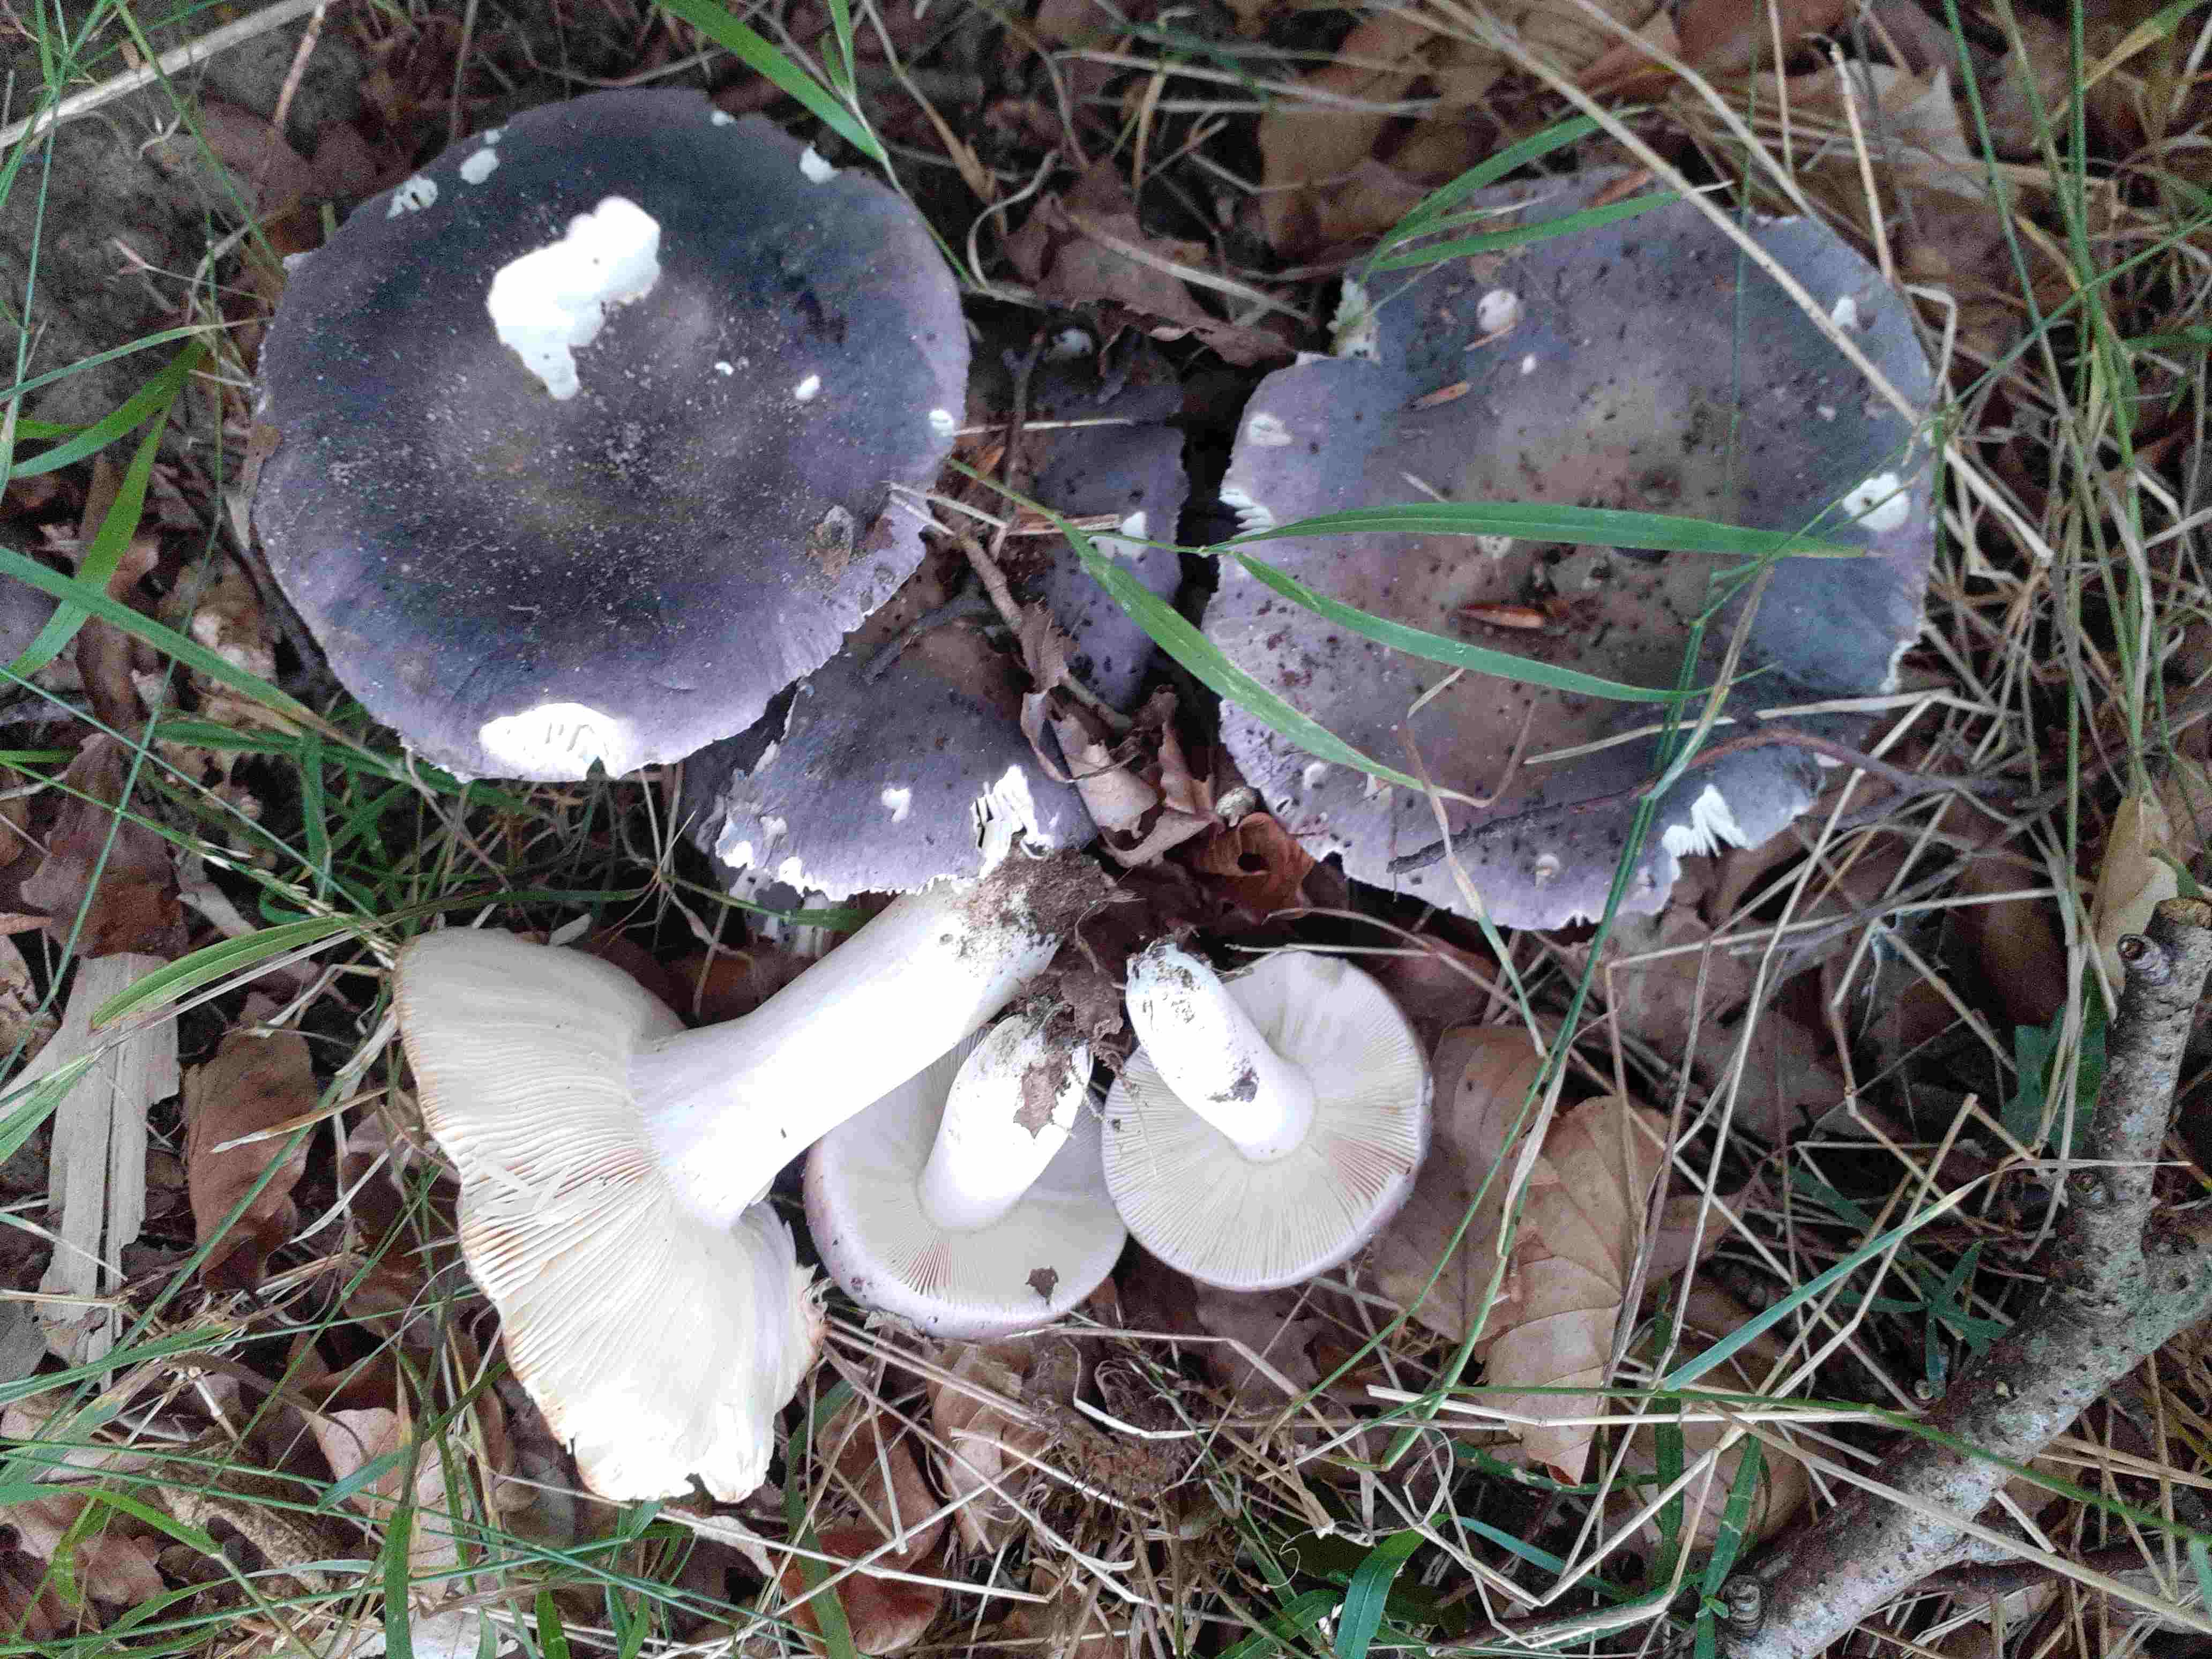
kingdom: Fungi
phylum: Basidiomycota
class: Agaricomycetes
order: Russulales
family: Russulaceae
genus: Russula
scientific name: Russula ionochlora
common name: violetgrøn skørhat
